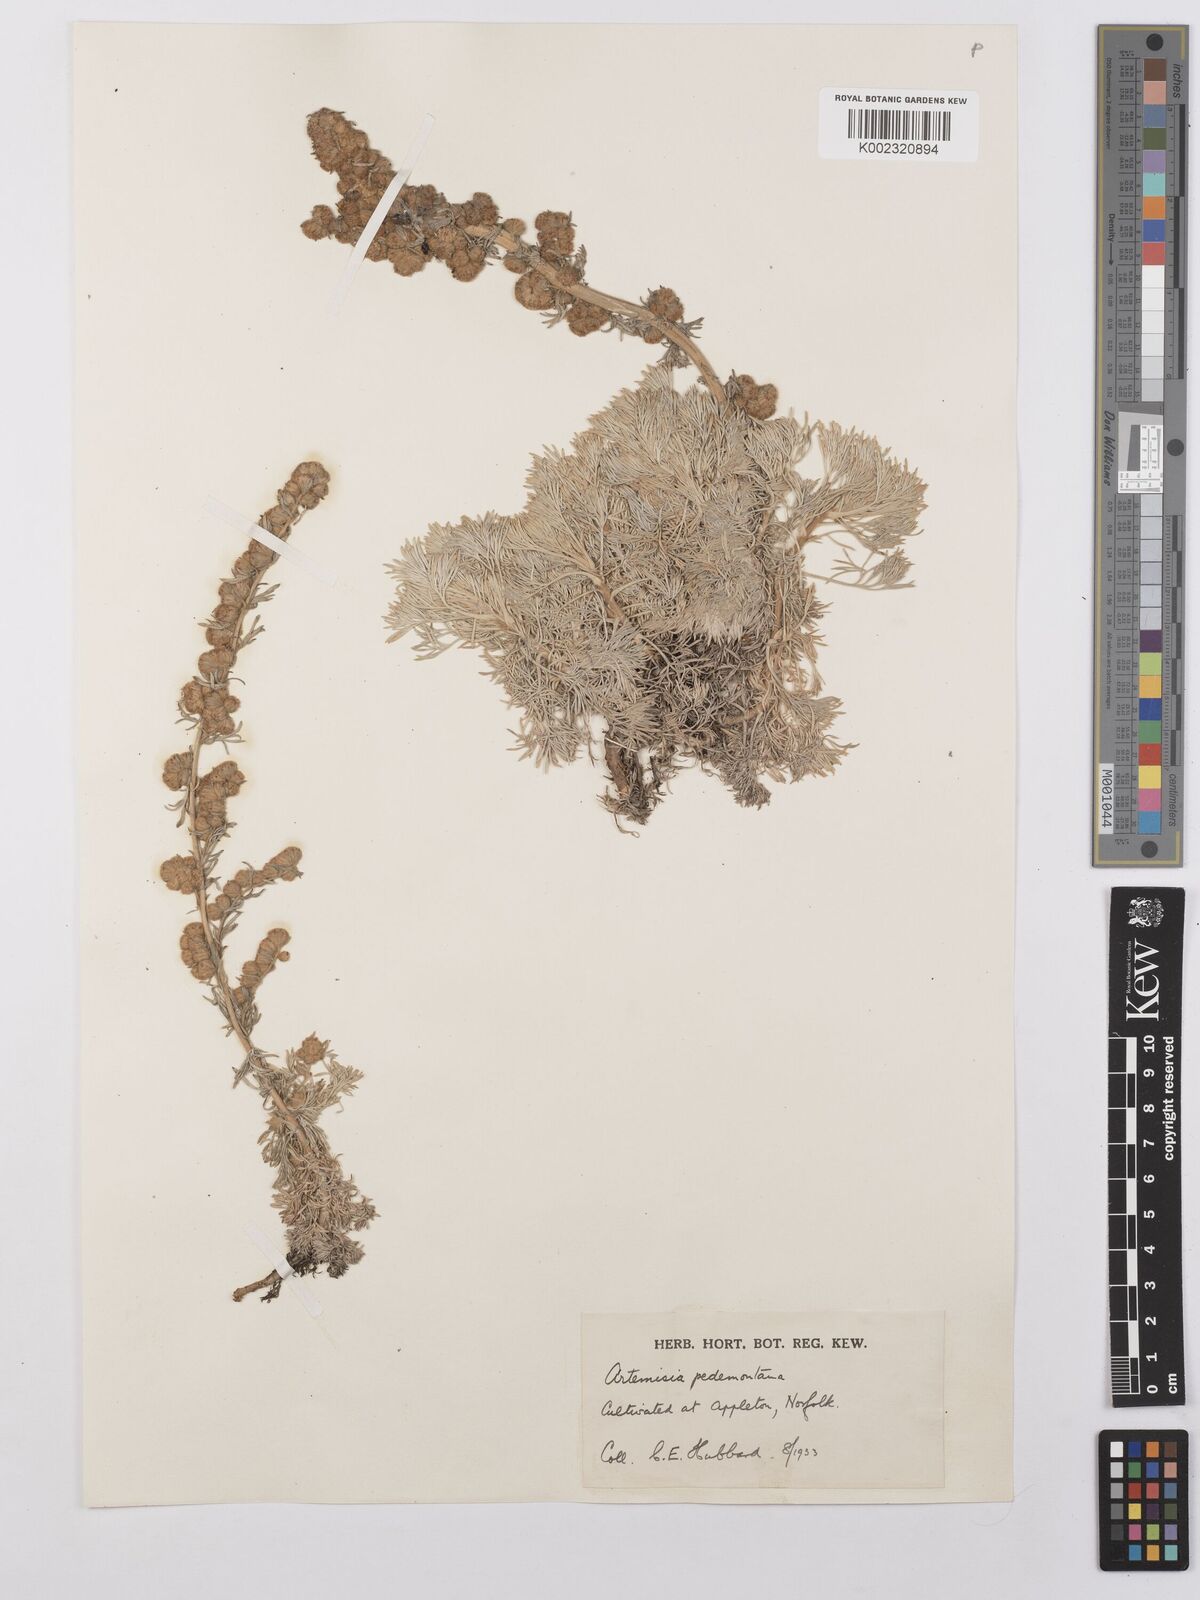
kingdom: Plantae
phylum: Tracheophyta
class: Magnoliopsida
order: Asterales
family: Asteraceae
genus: Artemisia
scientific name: Artemisia pedemontana
